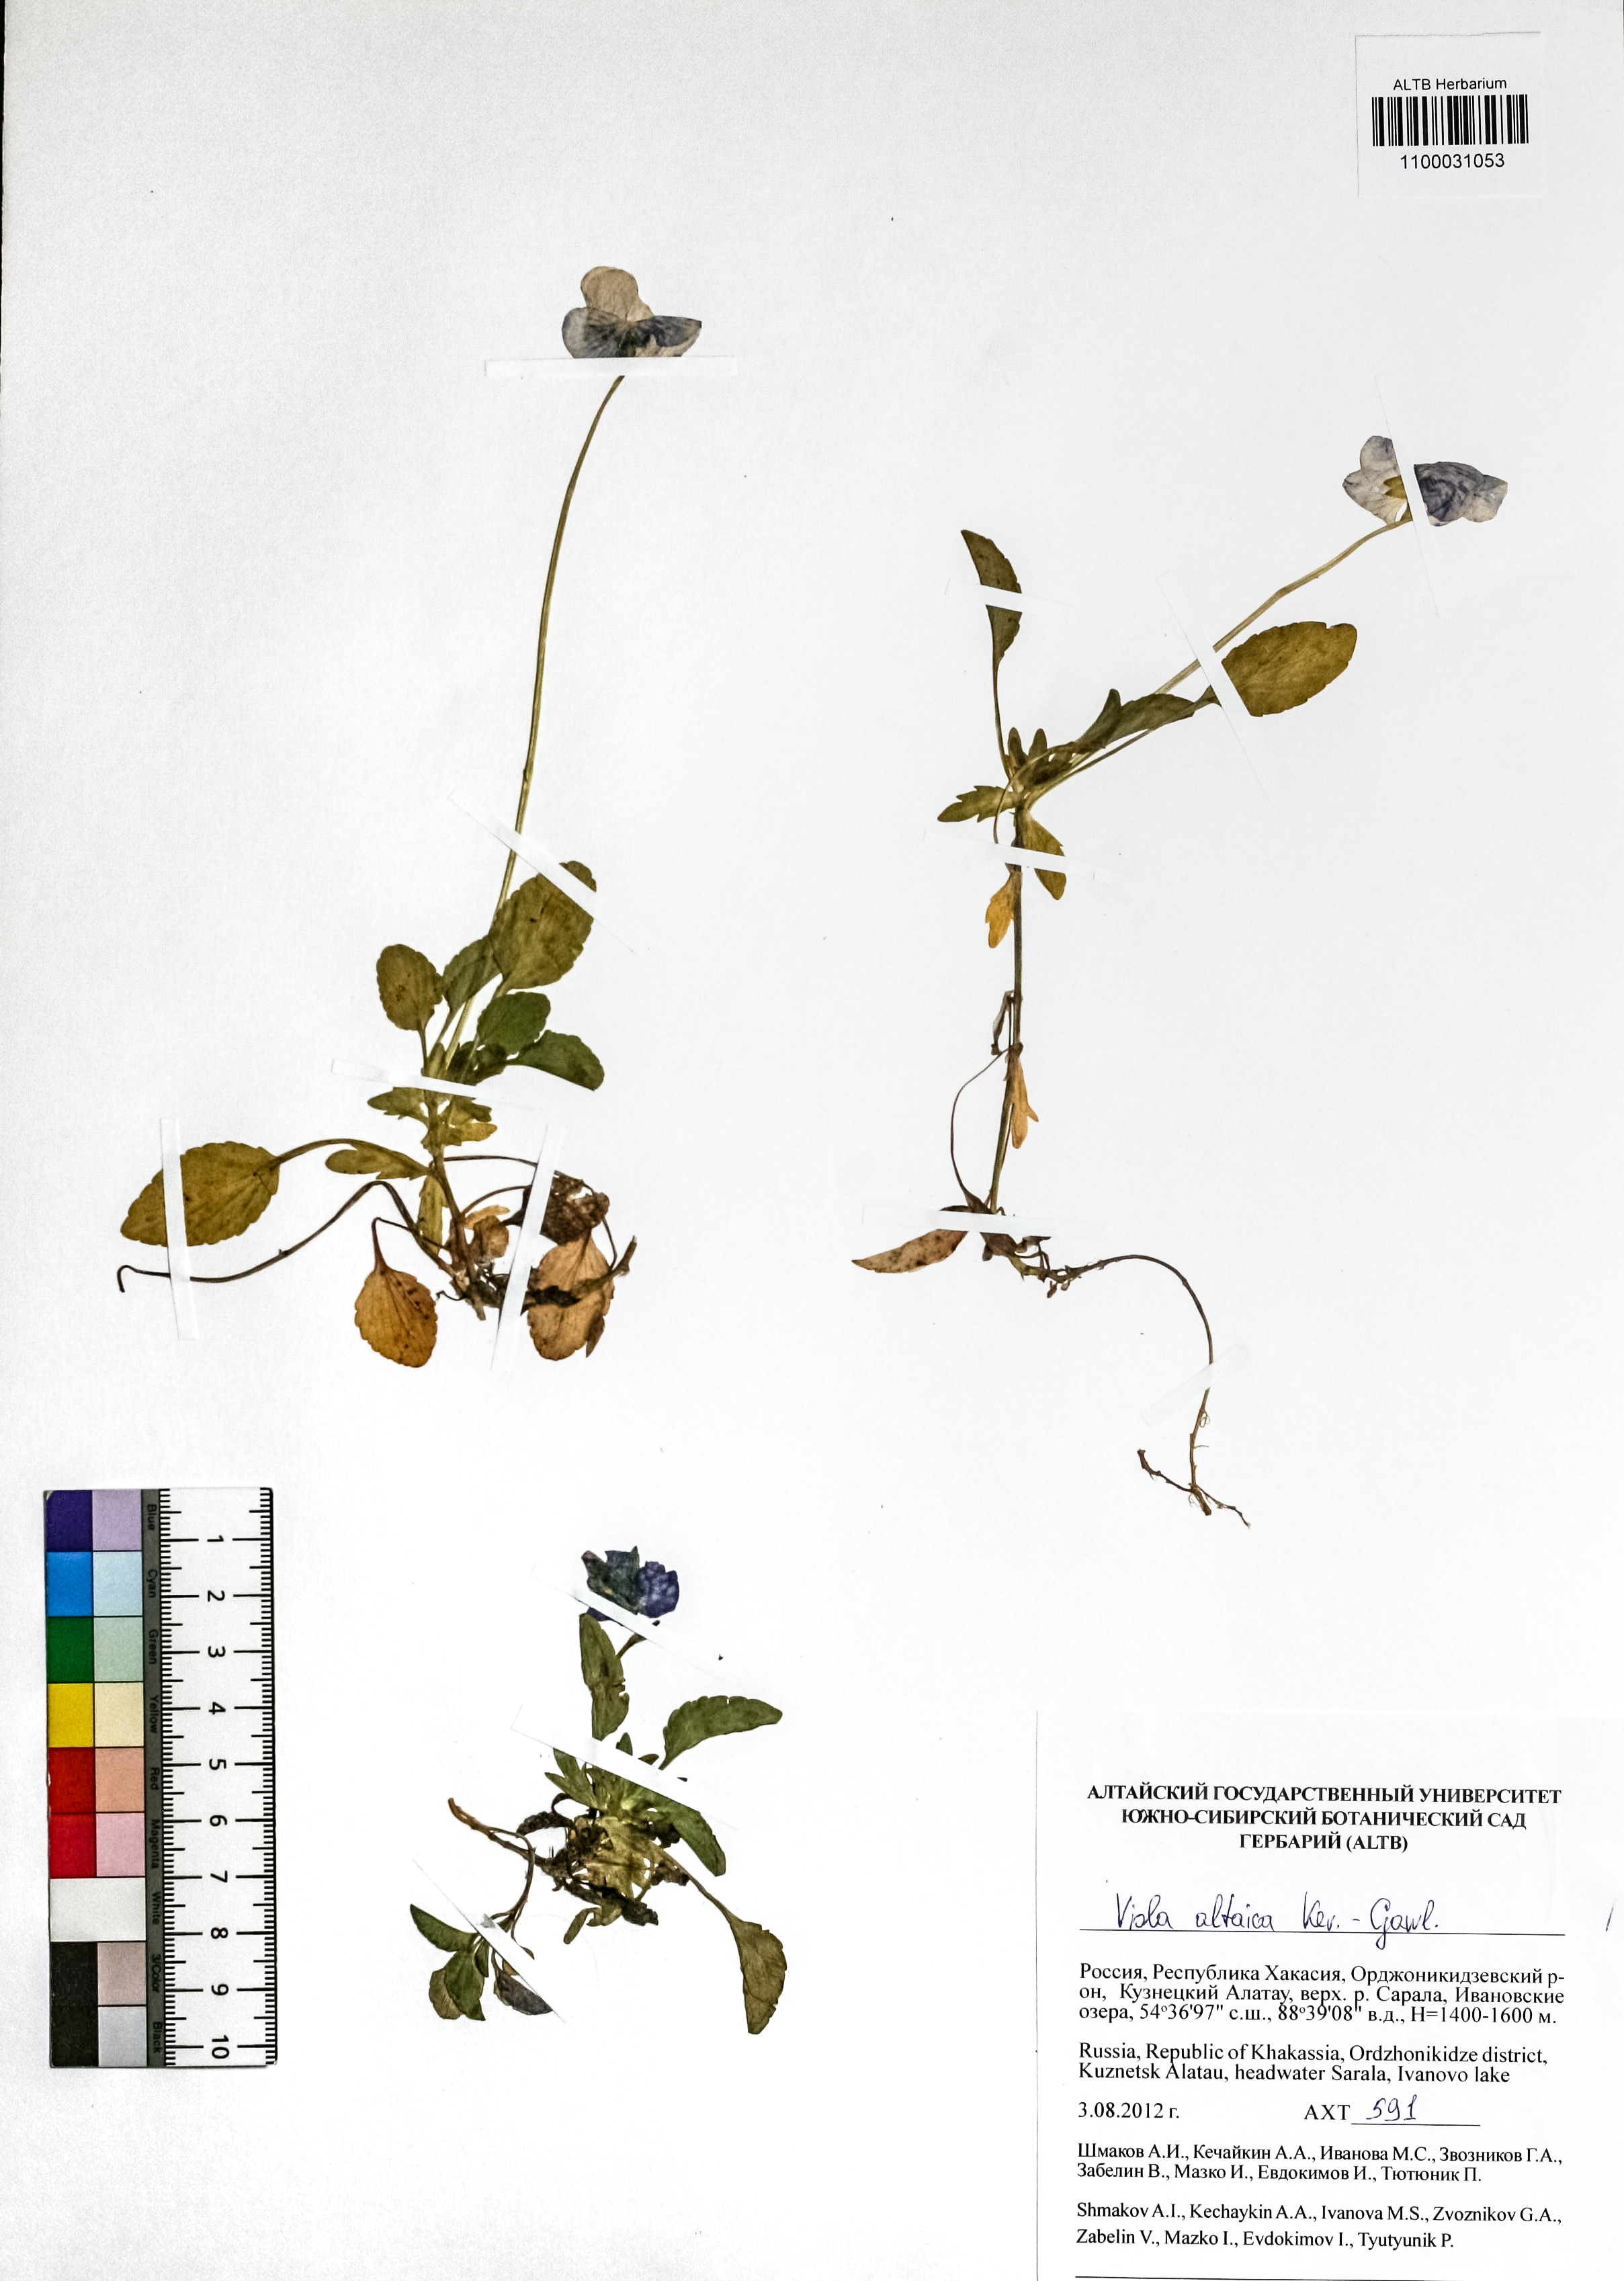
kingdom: Plantae
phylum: Tracheophyta
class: Magnoliopsida
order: Malpighiales
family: Violaceae
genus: Viola
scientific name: Viola altaica
